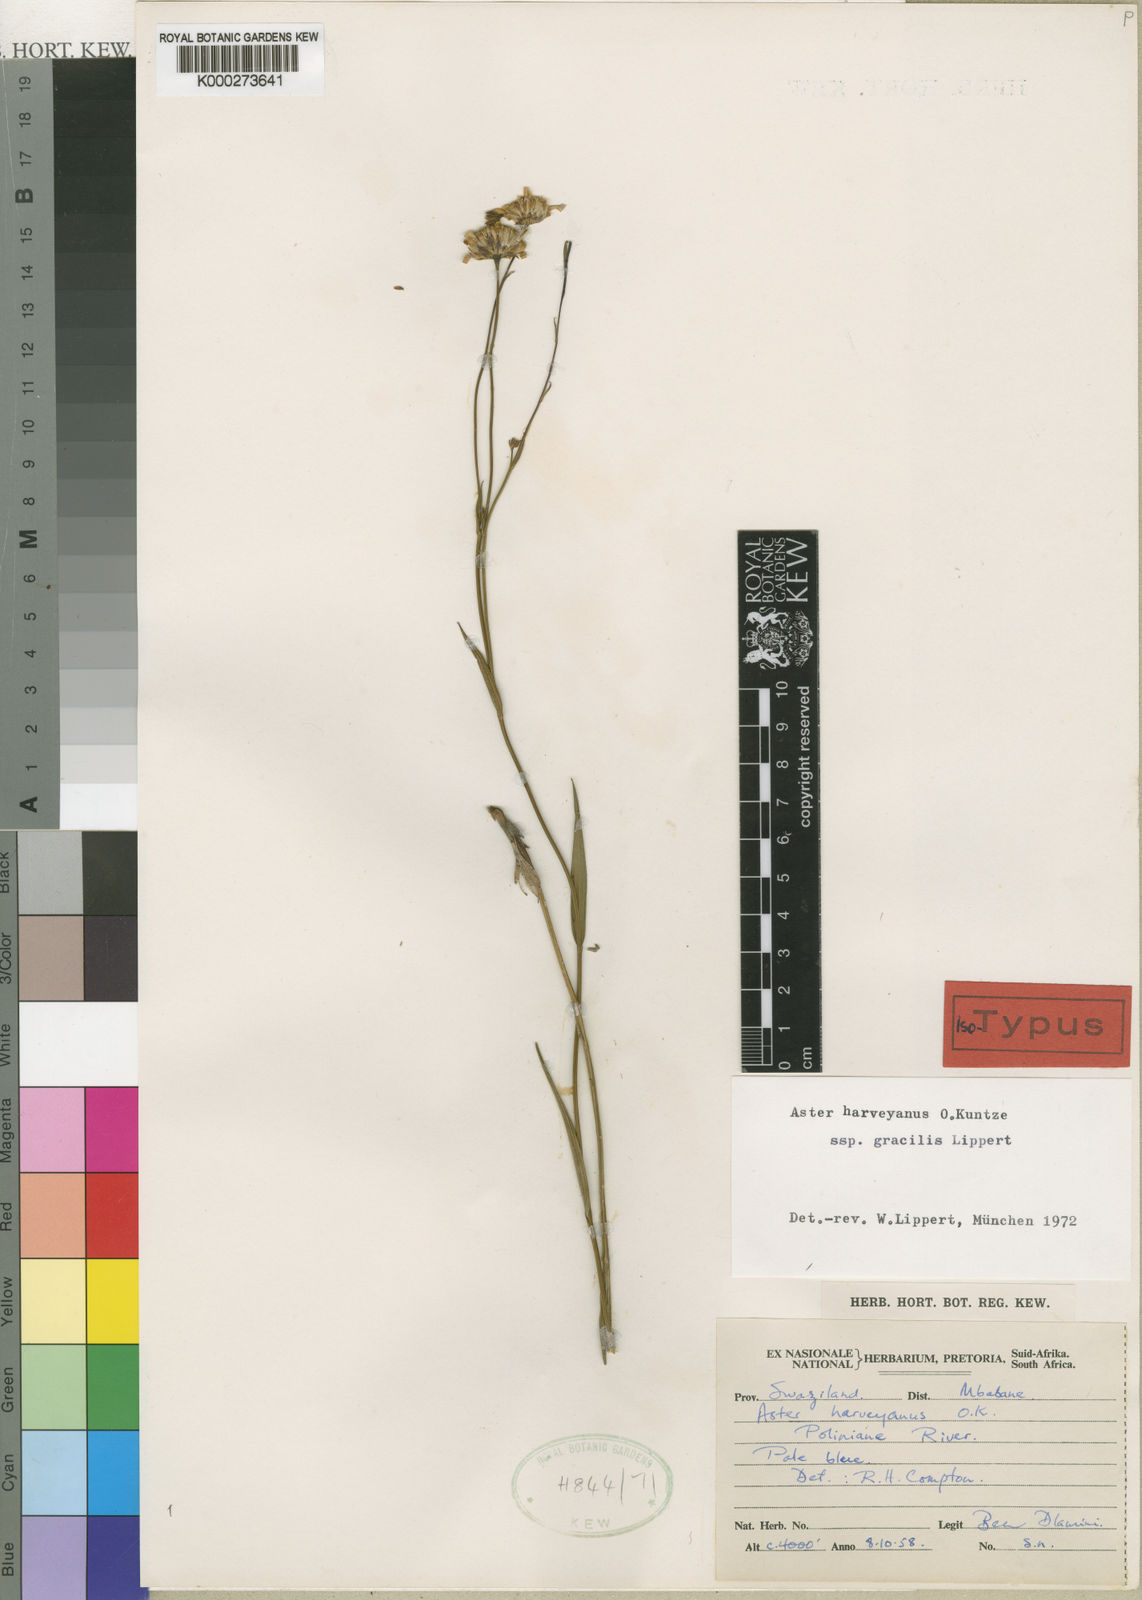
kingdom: Plantae
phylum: Tracheophyta
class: Magnoliopsida
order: Asterales
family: Asteraceae
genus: Afroaster
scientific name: Afroaster serrulatus
